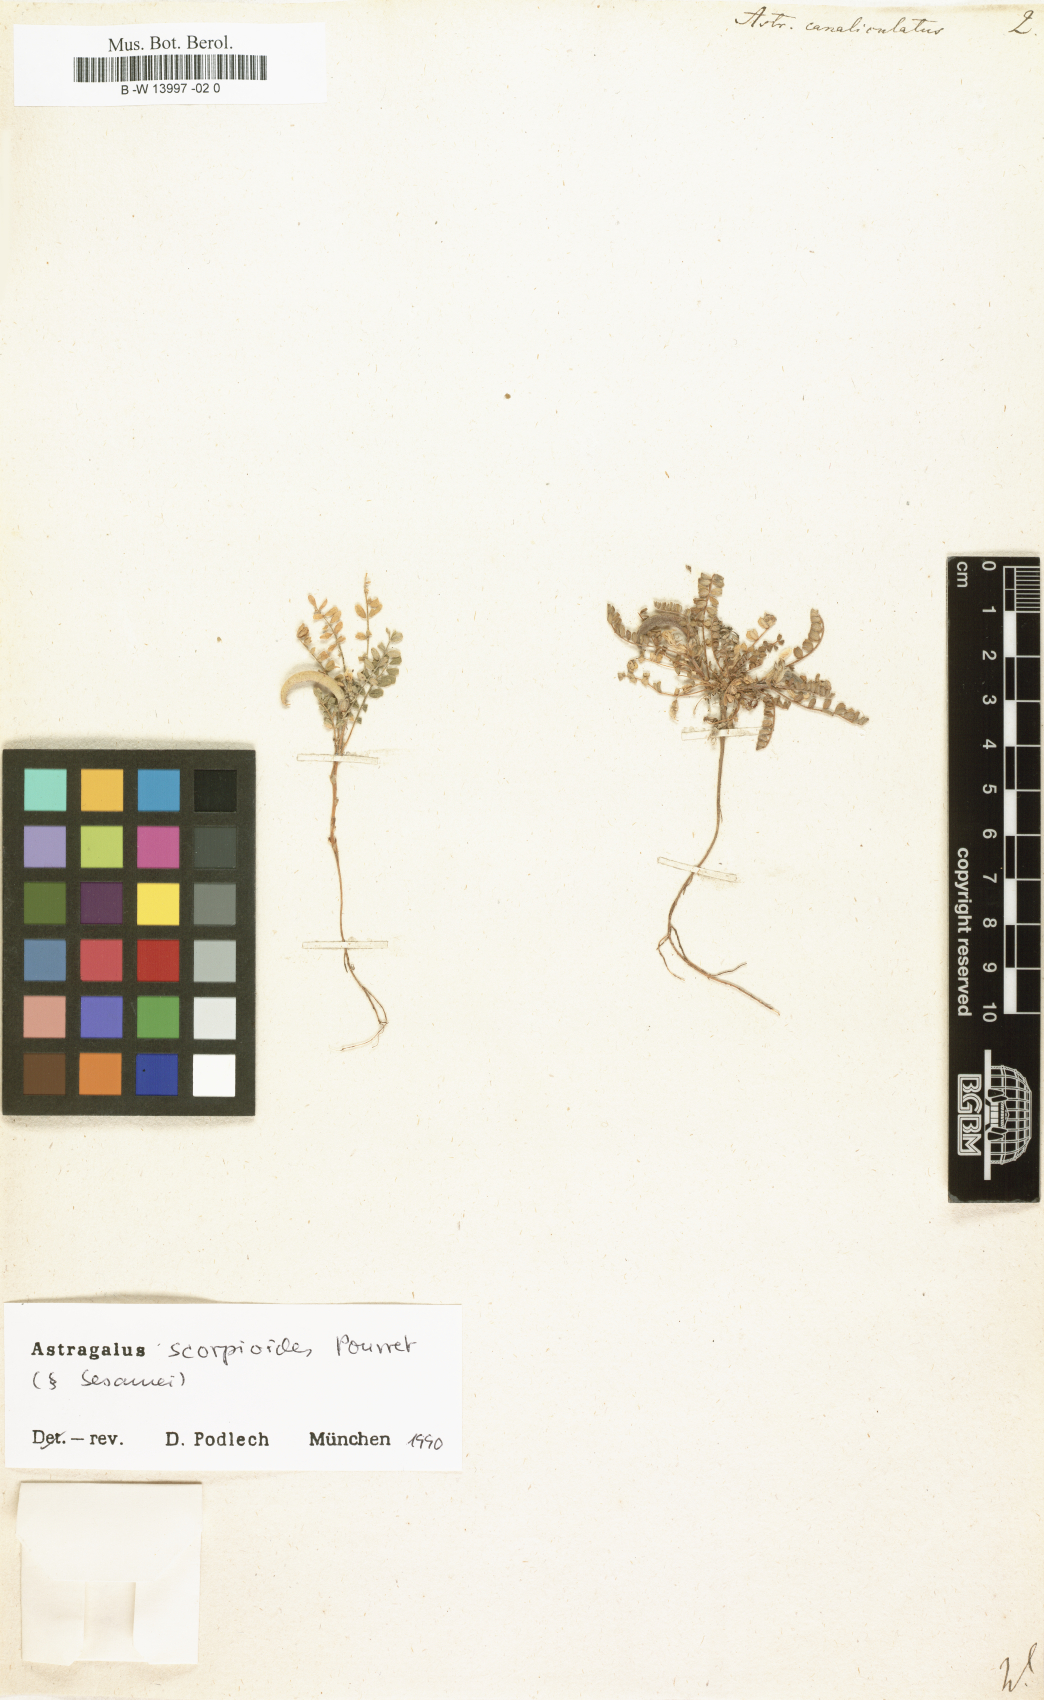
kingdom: Plantae
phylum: Tracheophyta
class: Magnoliopsida
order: Fabales
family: Fabaceae
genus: Astragalus
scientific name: Astragalus scorpioides
